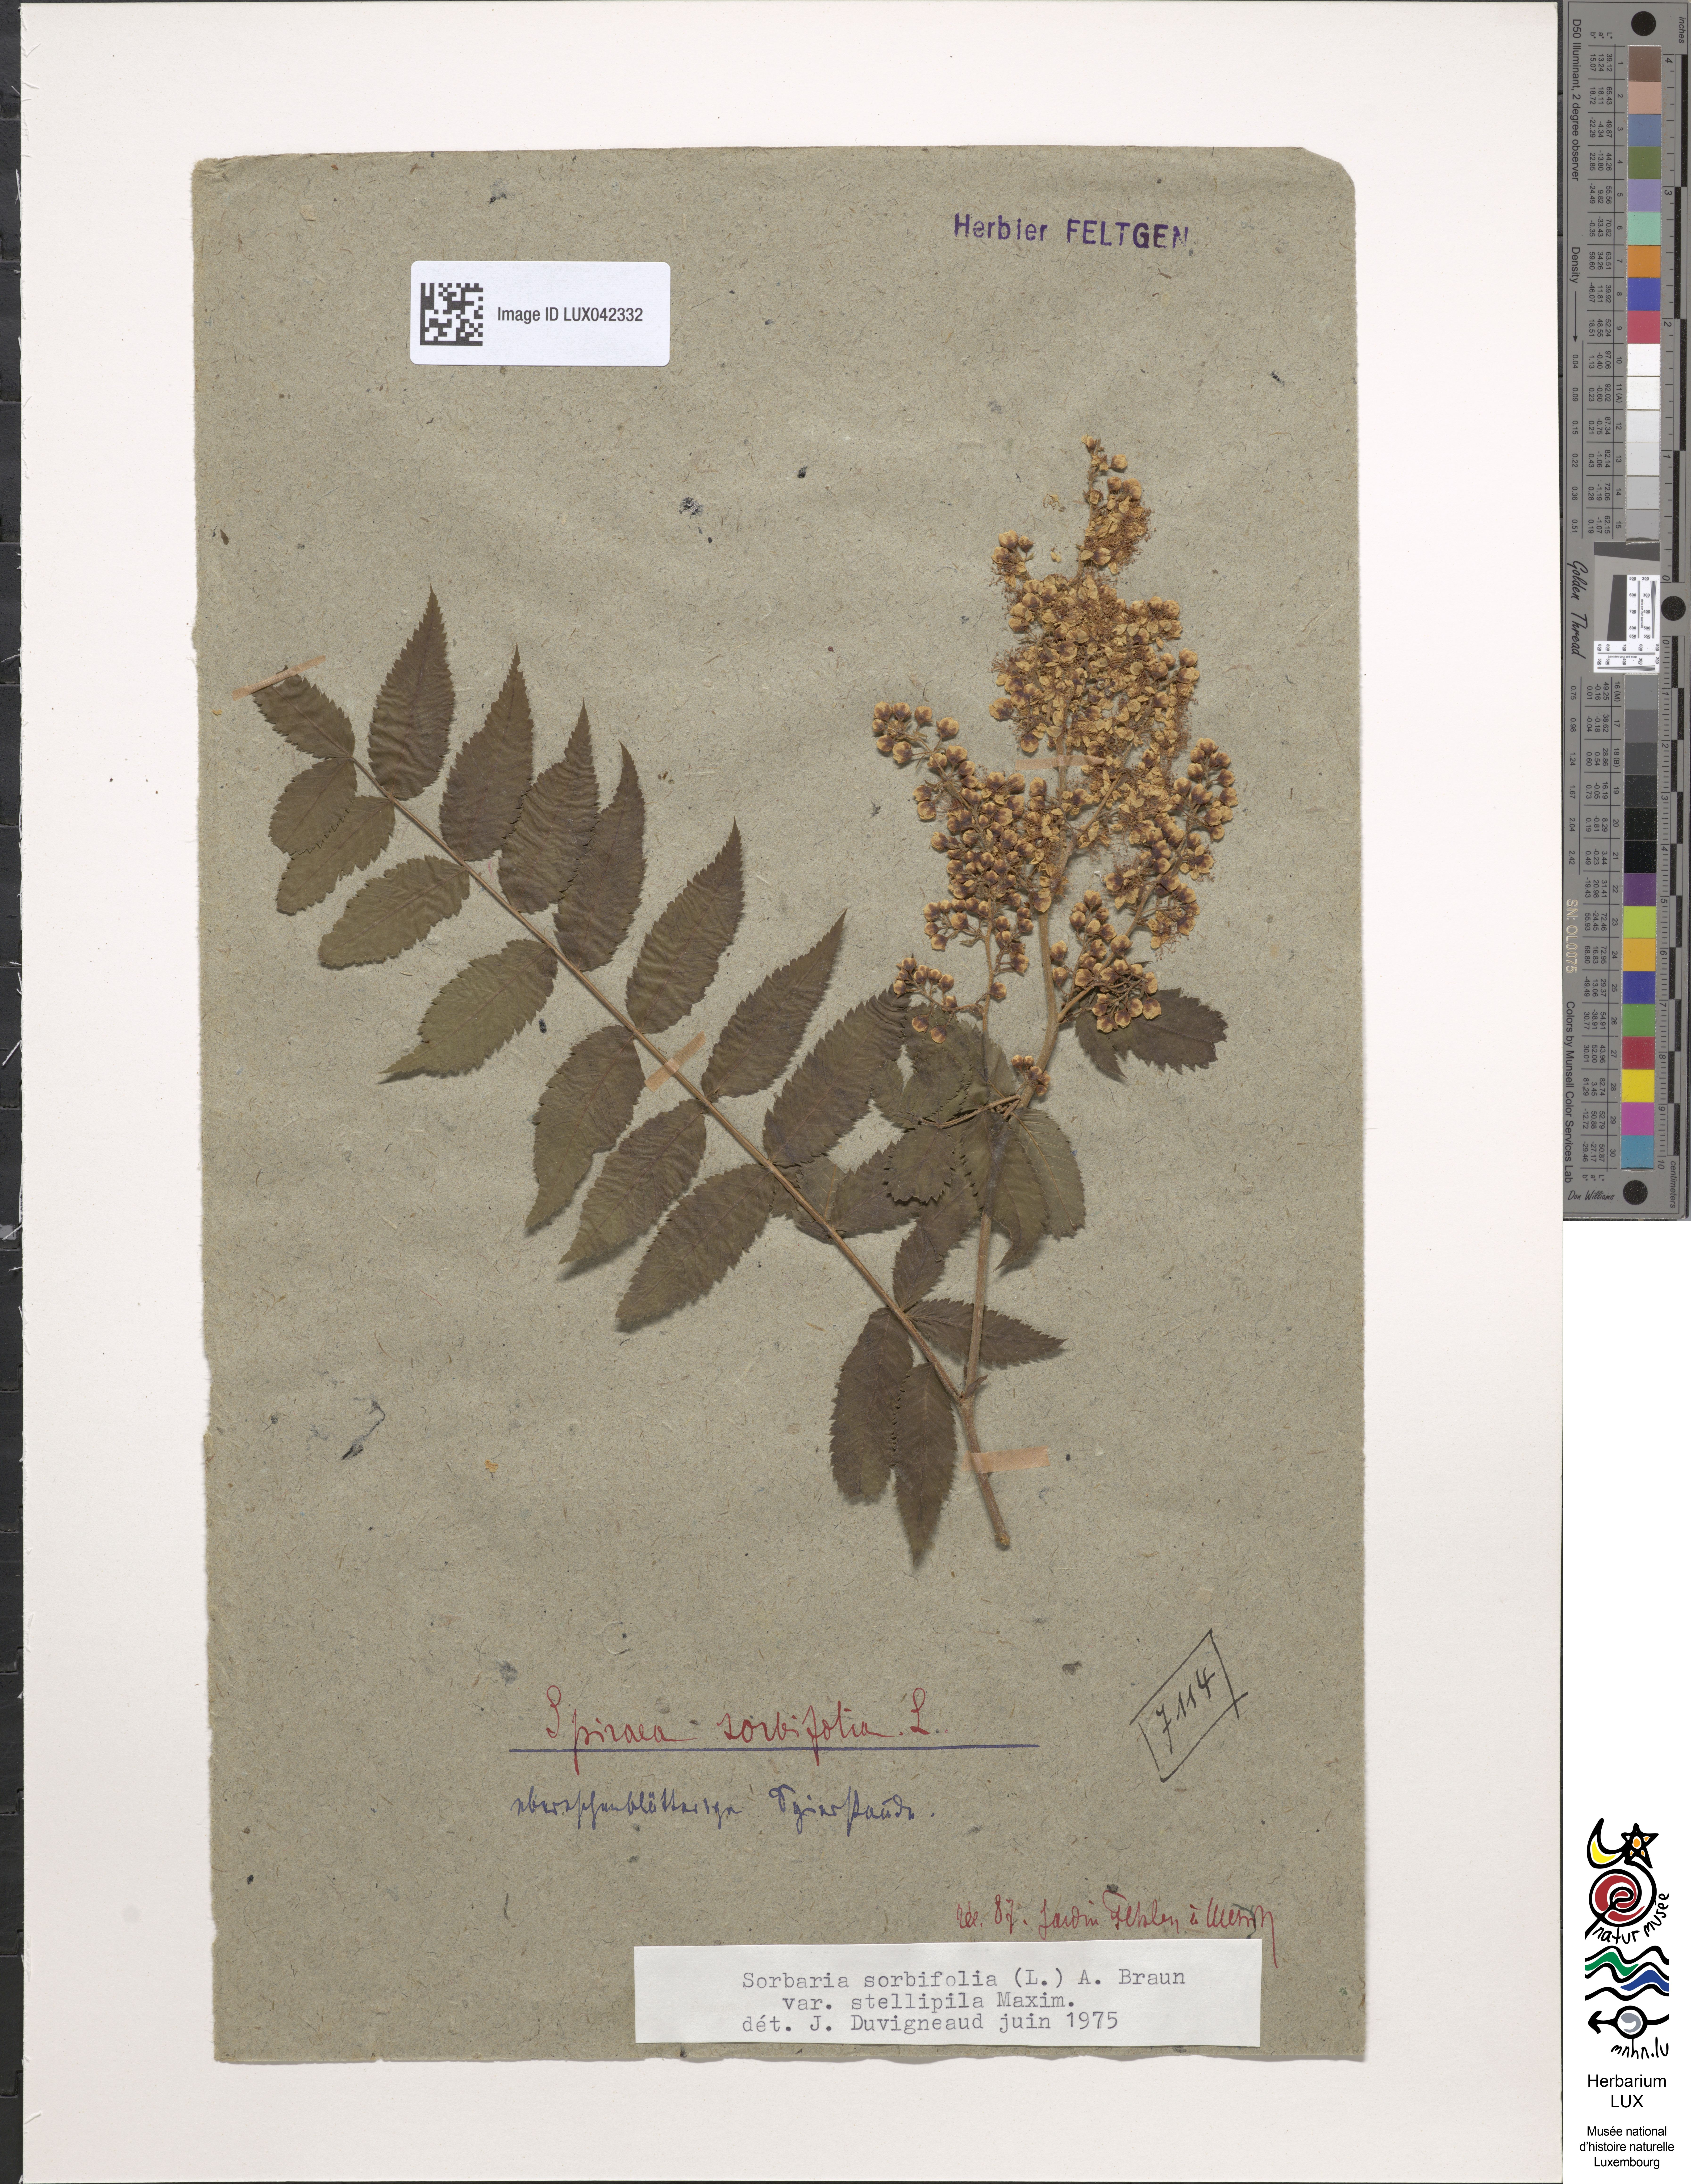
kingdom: Plantae
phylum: Tracheophyta
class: Magnoliopsida
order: Rosales
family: Rosaceae
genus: Sorbaria
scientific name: Sorbaria sorbifolia
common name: False spiraea
